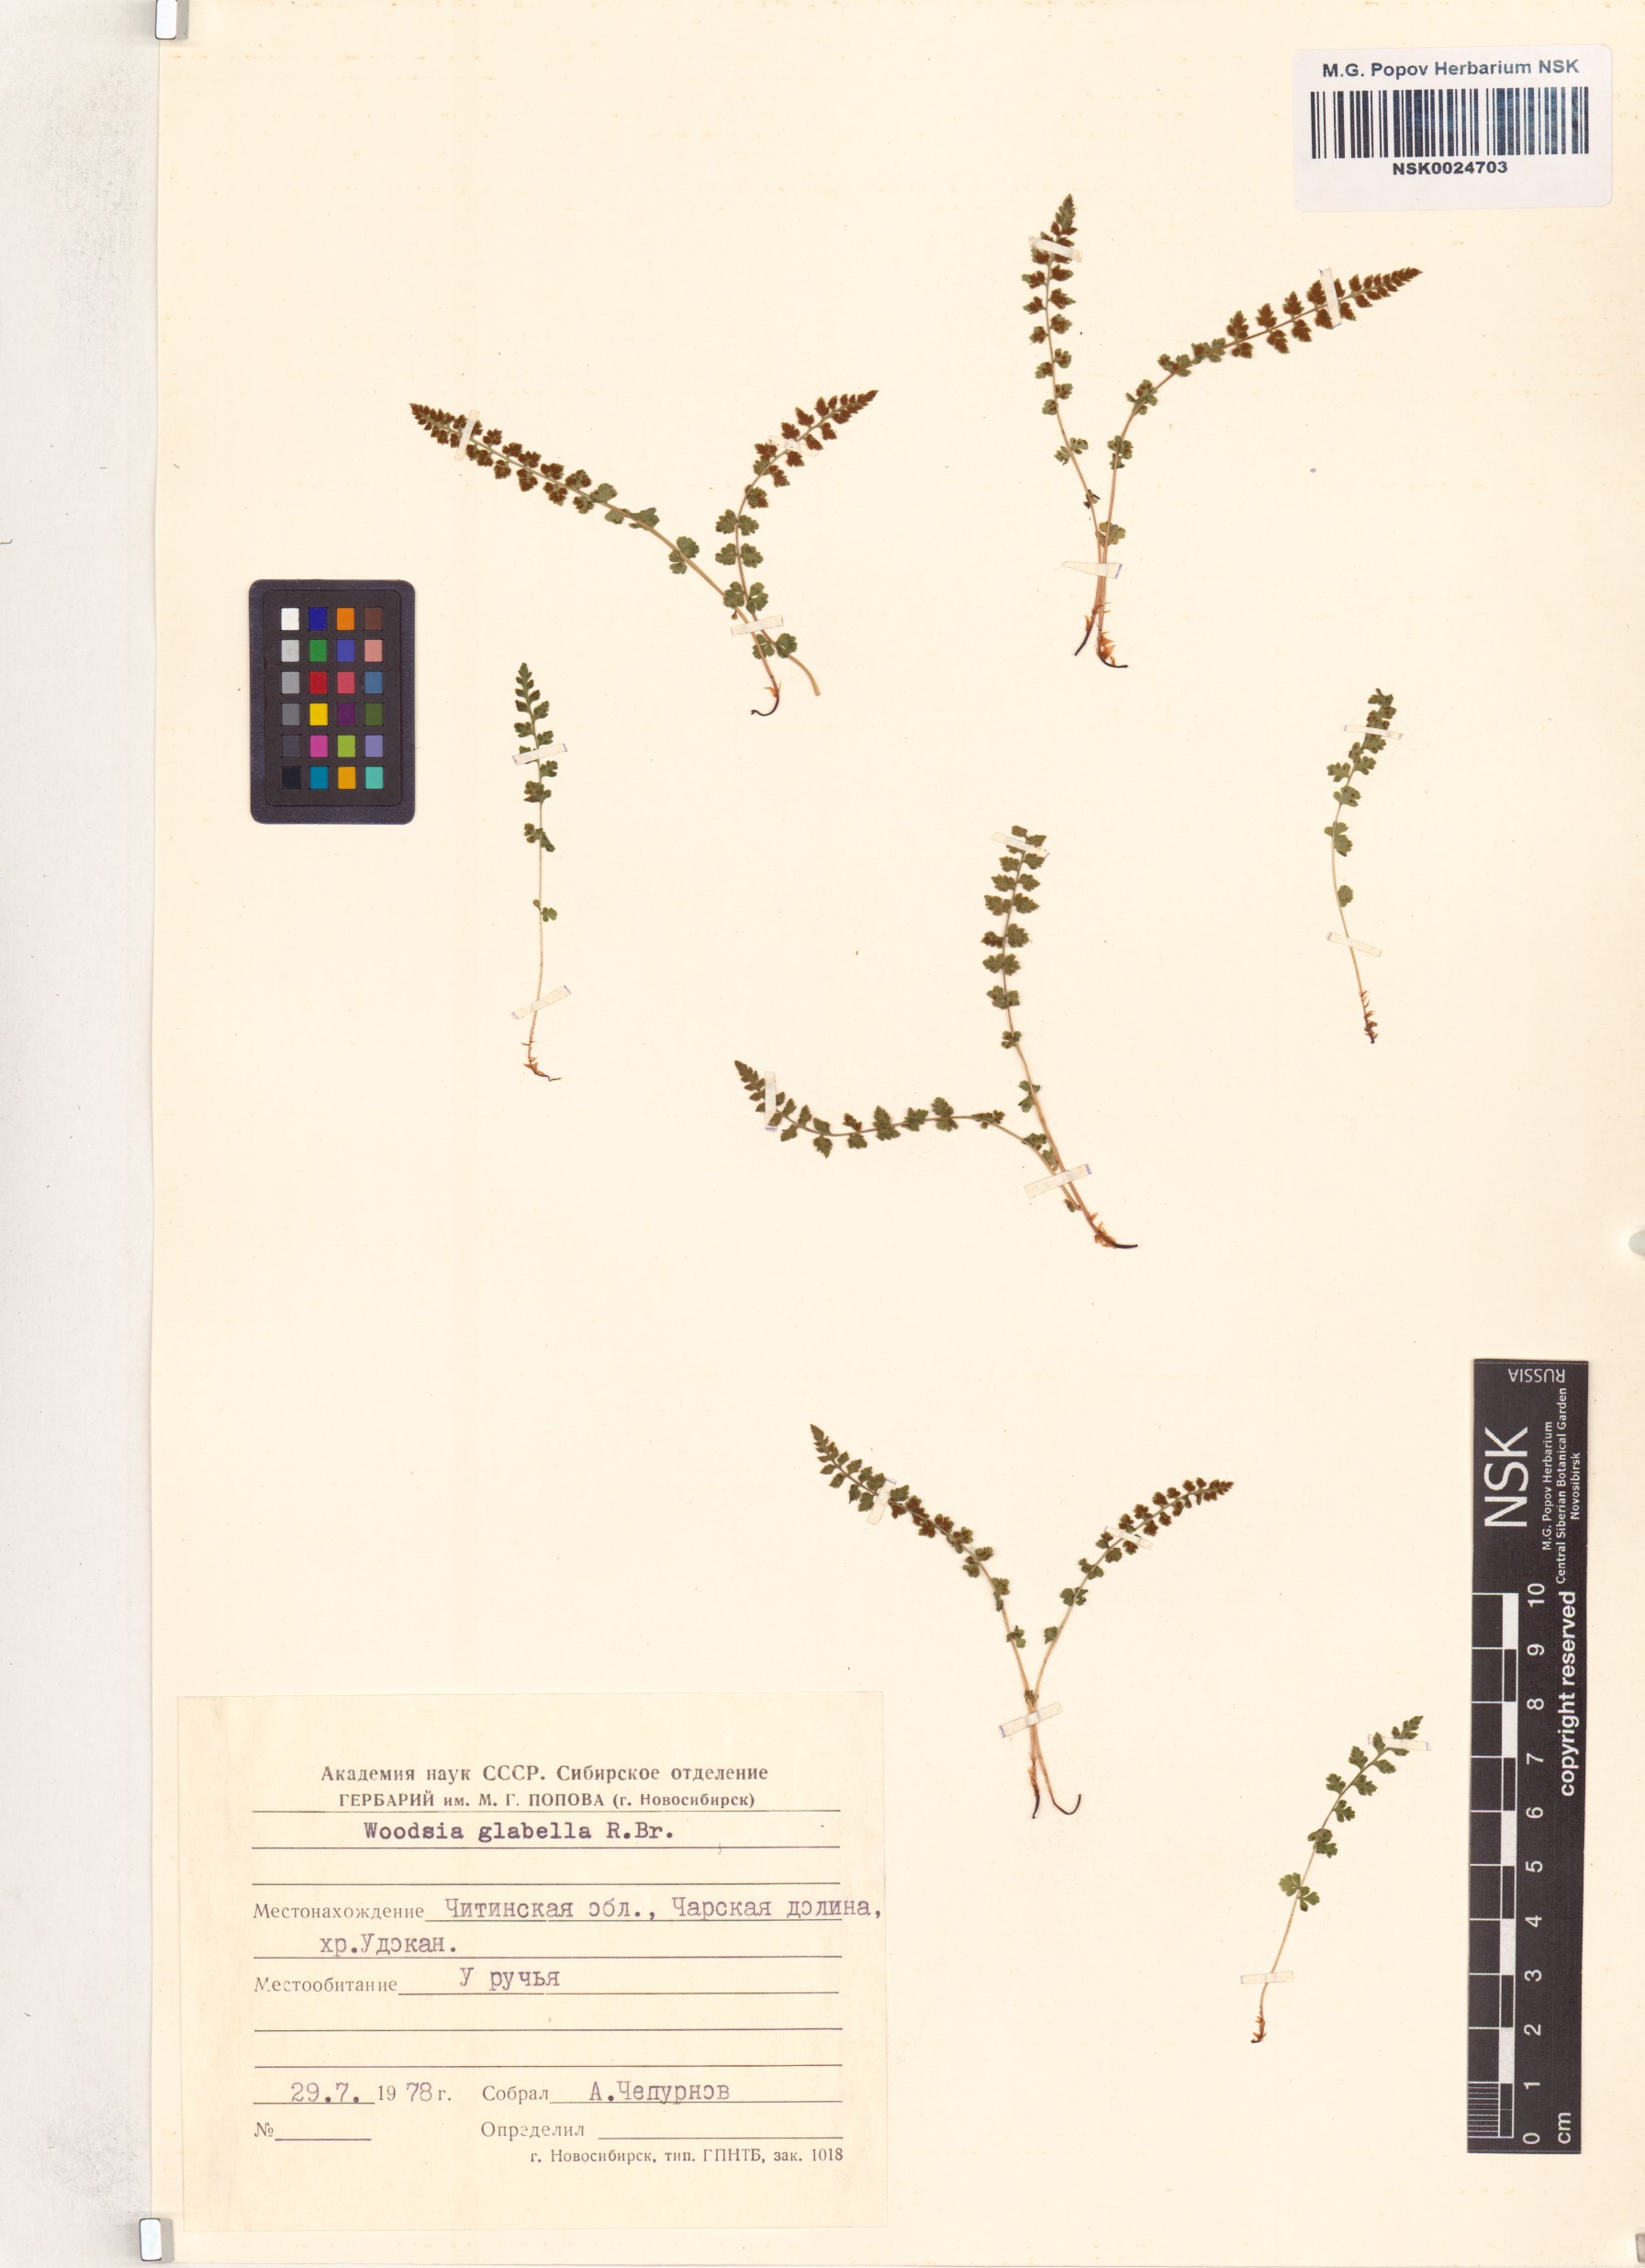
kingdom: Plantae
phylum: Tracheophyta
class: Polypodiopsida
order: Polypodiales
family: Woodsiaceae
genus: Woodsia
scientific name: Woodsia glabella
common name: Smooth woodsia
